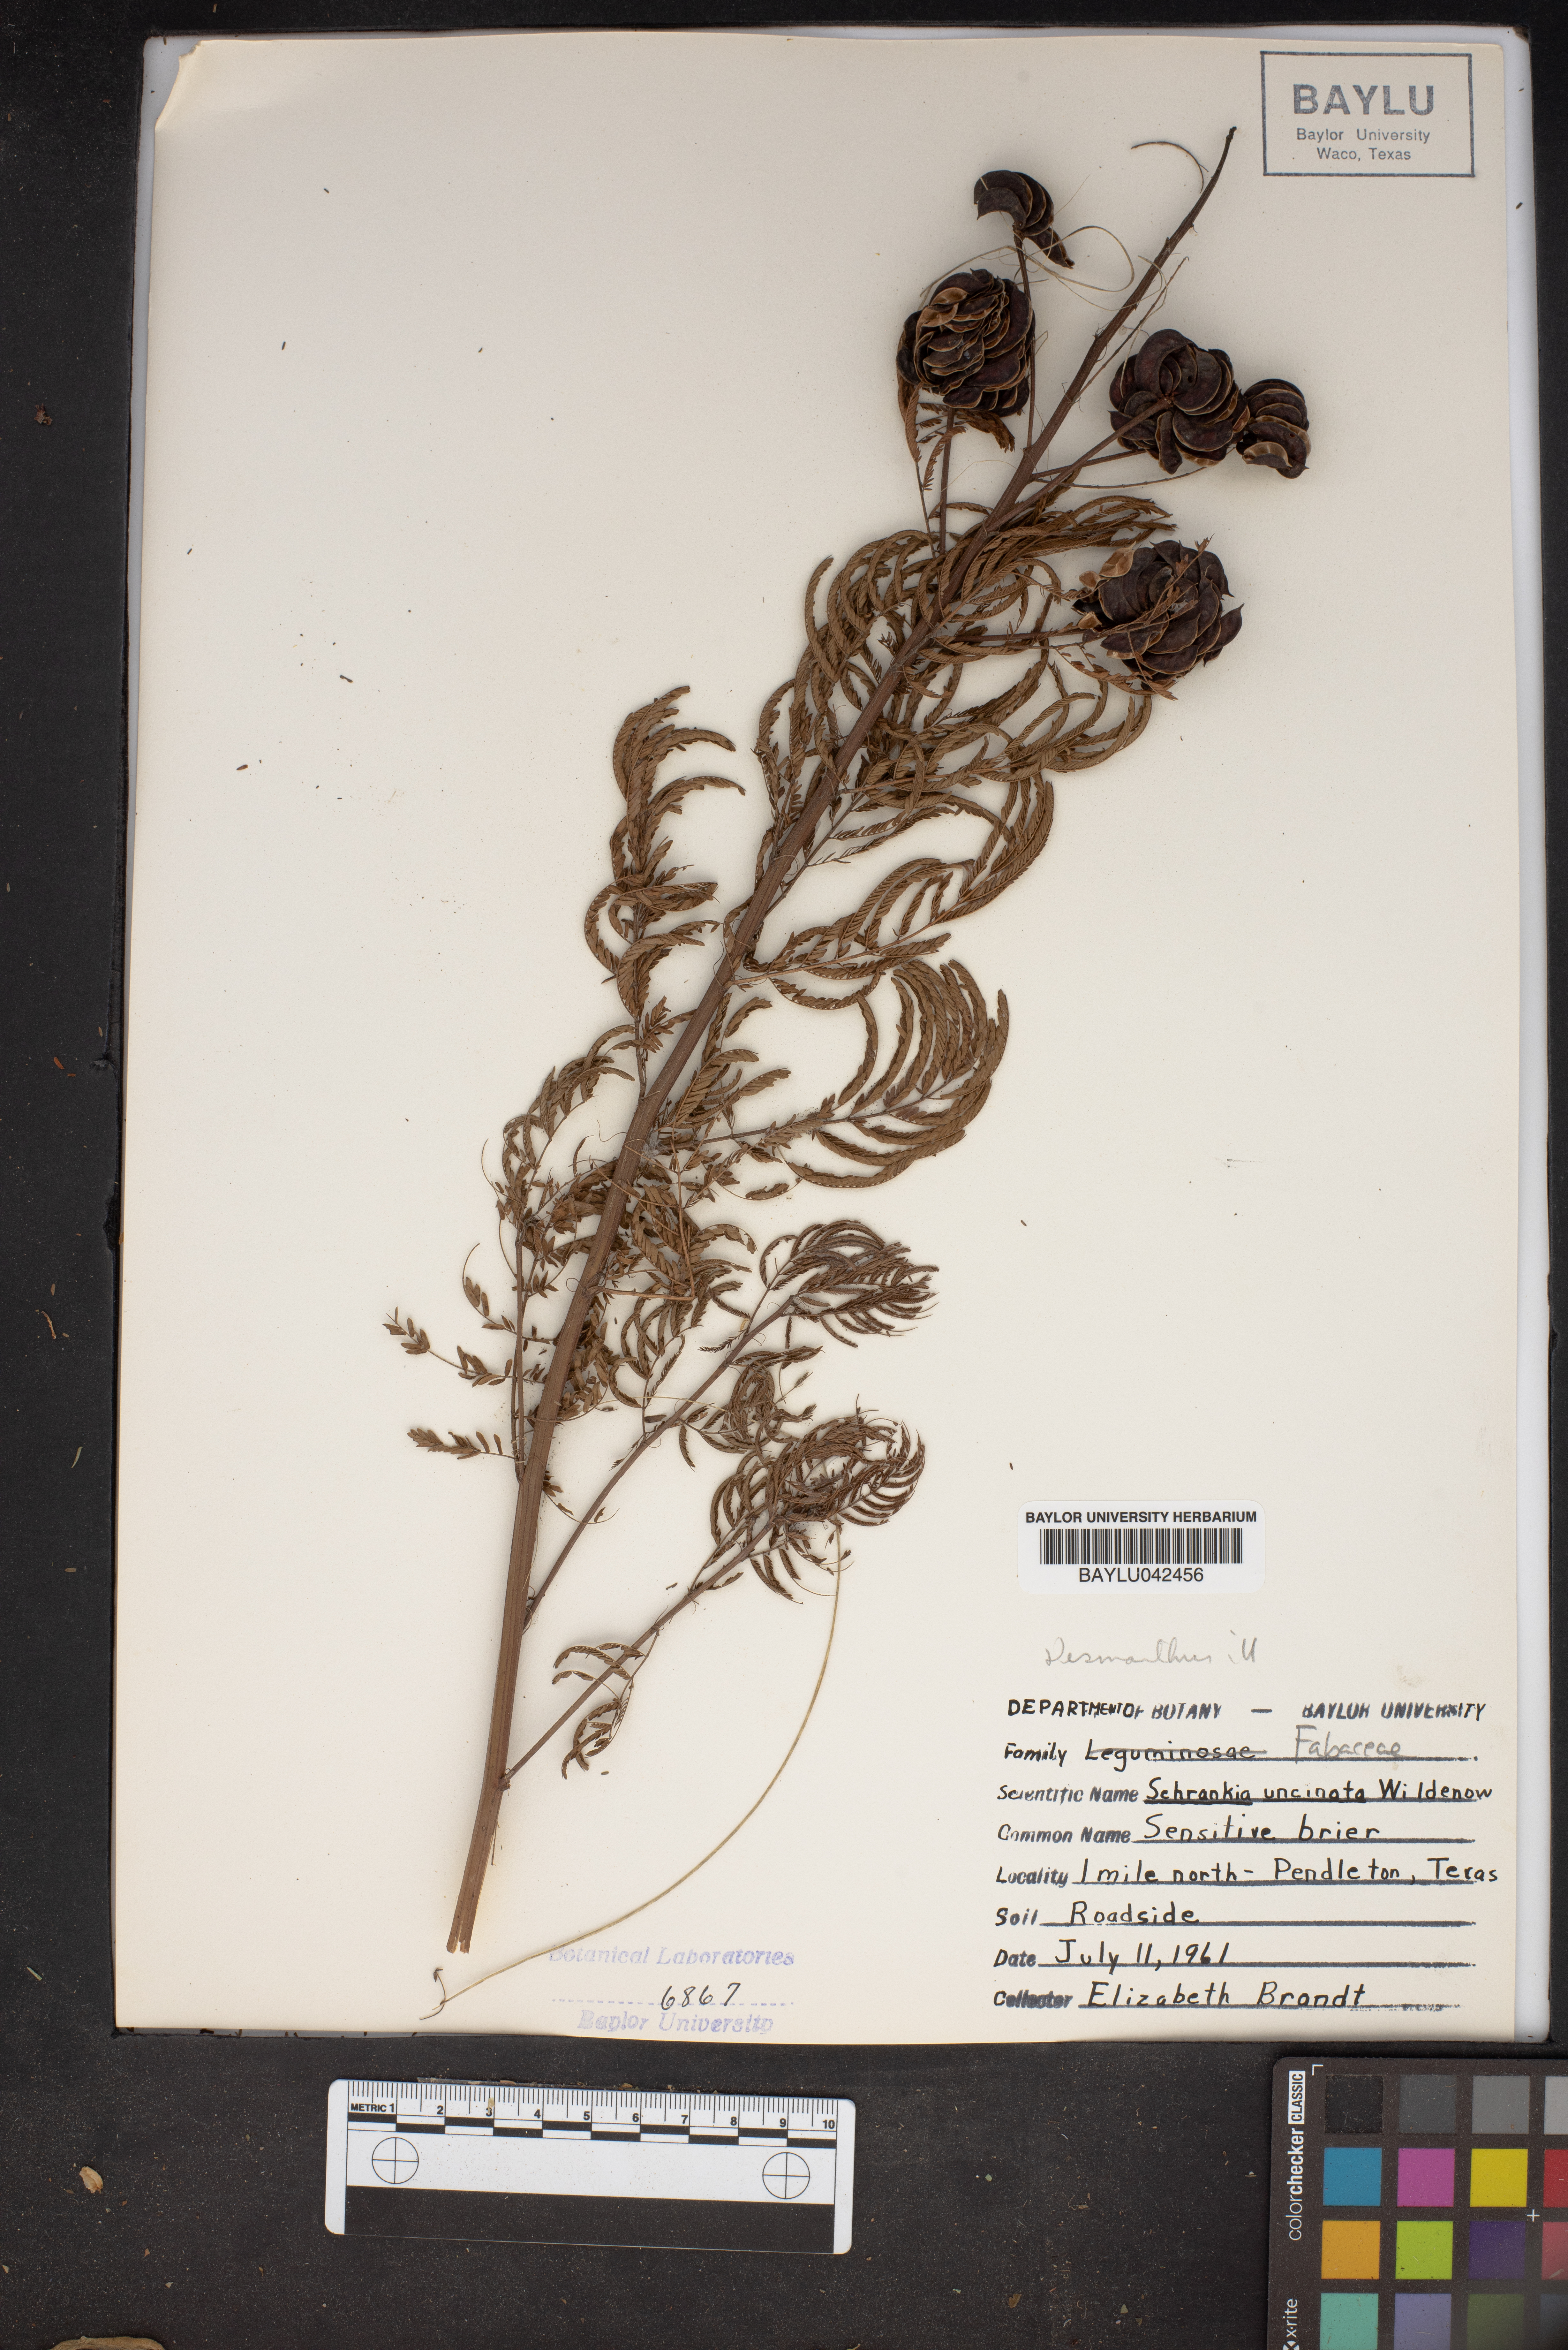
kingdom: Plantae
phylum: Tracheophyta
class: Magnoliopsida
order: Fabales
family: Fabaceae
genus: Mimosa
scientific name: Mimosa quadrivalvis
